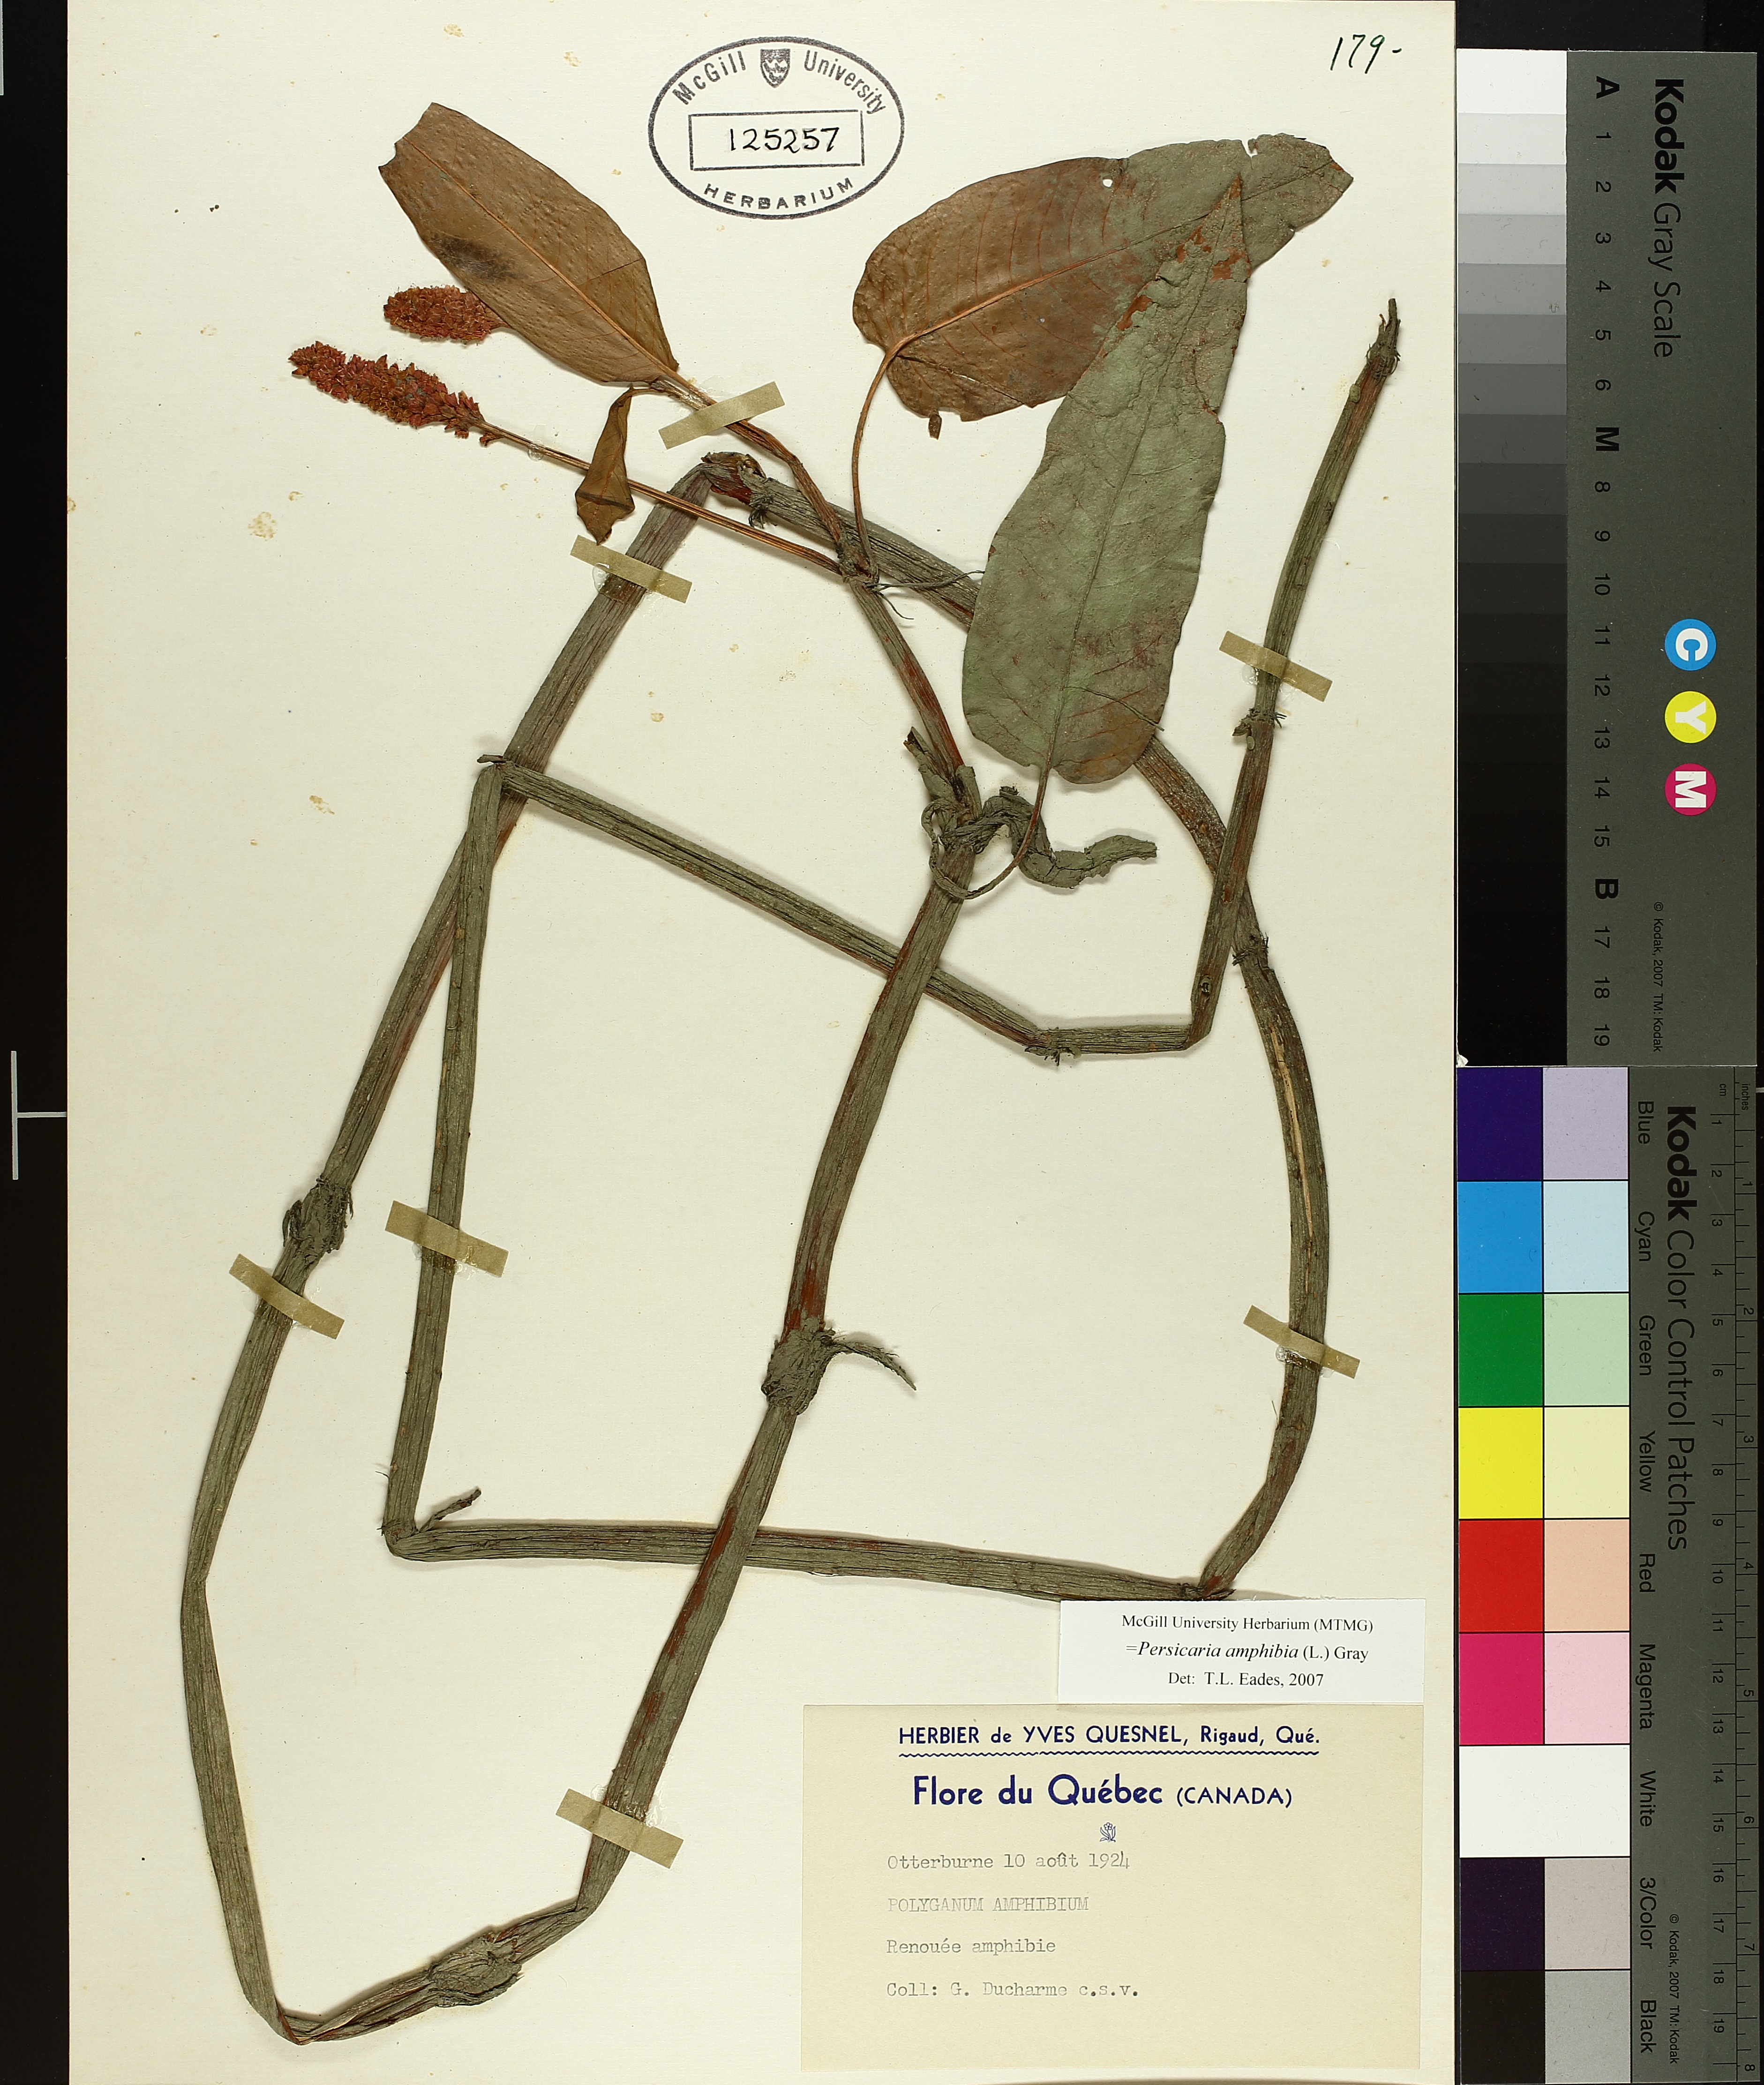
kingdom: Plantae
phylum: Tracheophyta
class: Magnoliopsida
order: Caryophyllales
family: Polygonaceae
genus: Persicaria
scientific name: Persicaria amphibia
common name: Amphibious bistort
